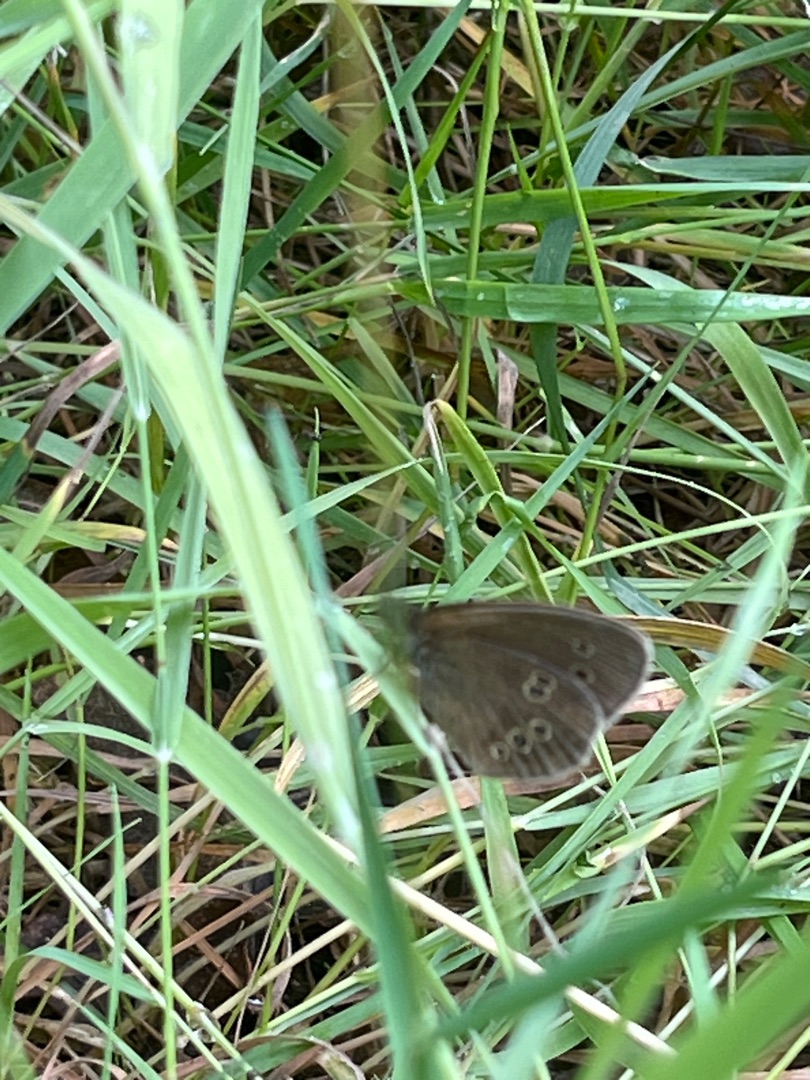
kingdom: Animalia
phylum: Arthropoda
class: Insecta
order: Lepidoptera
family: Nymphalidae
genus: Aphantopus
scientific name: Aphantopus hyperantus
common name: Engrandøje
